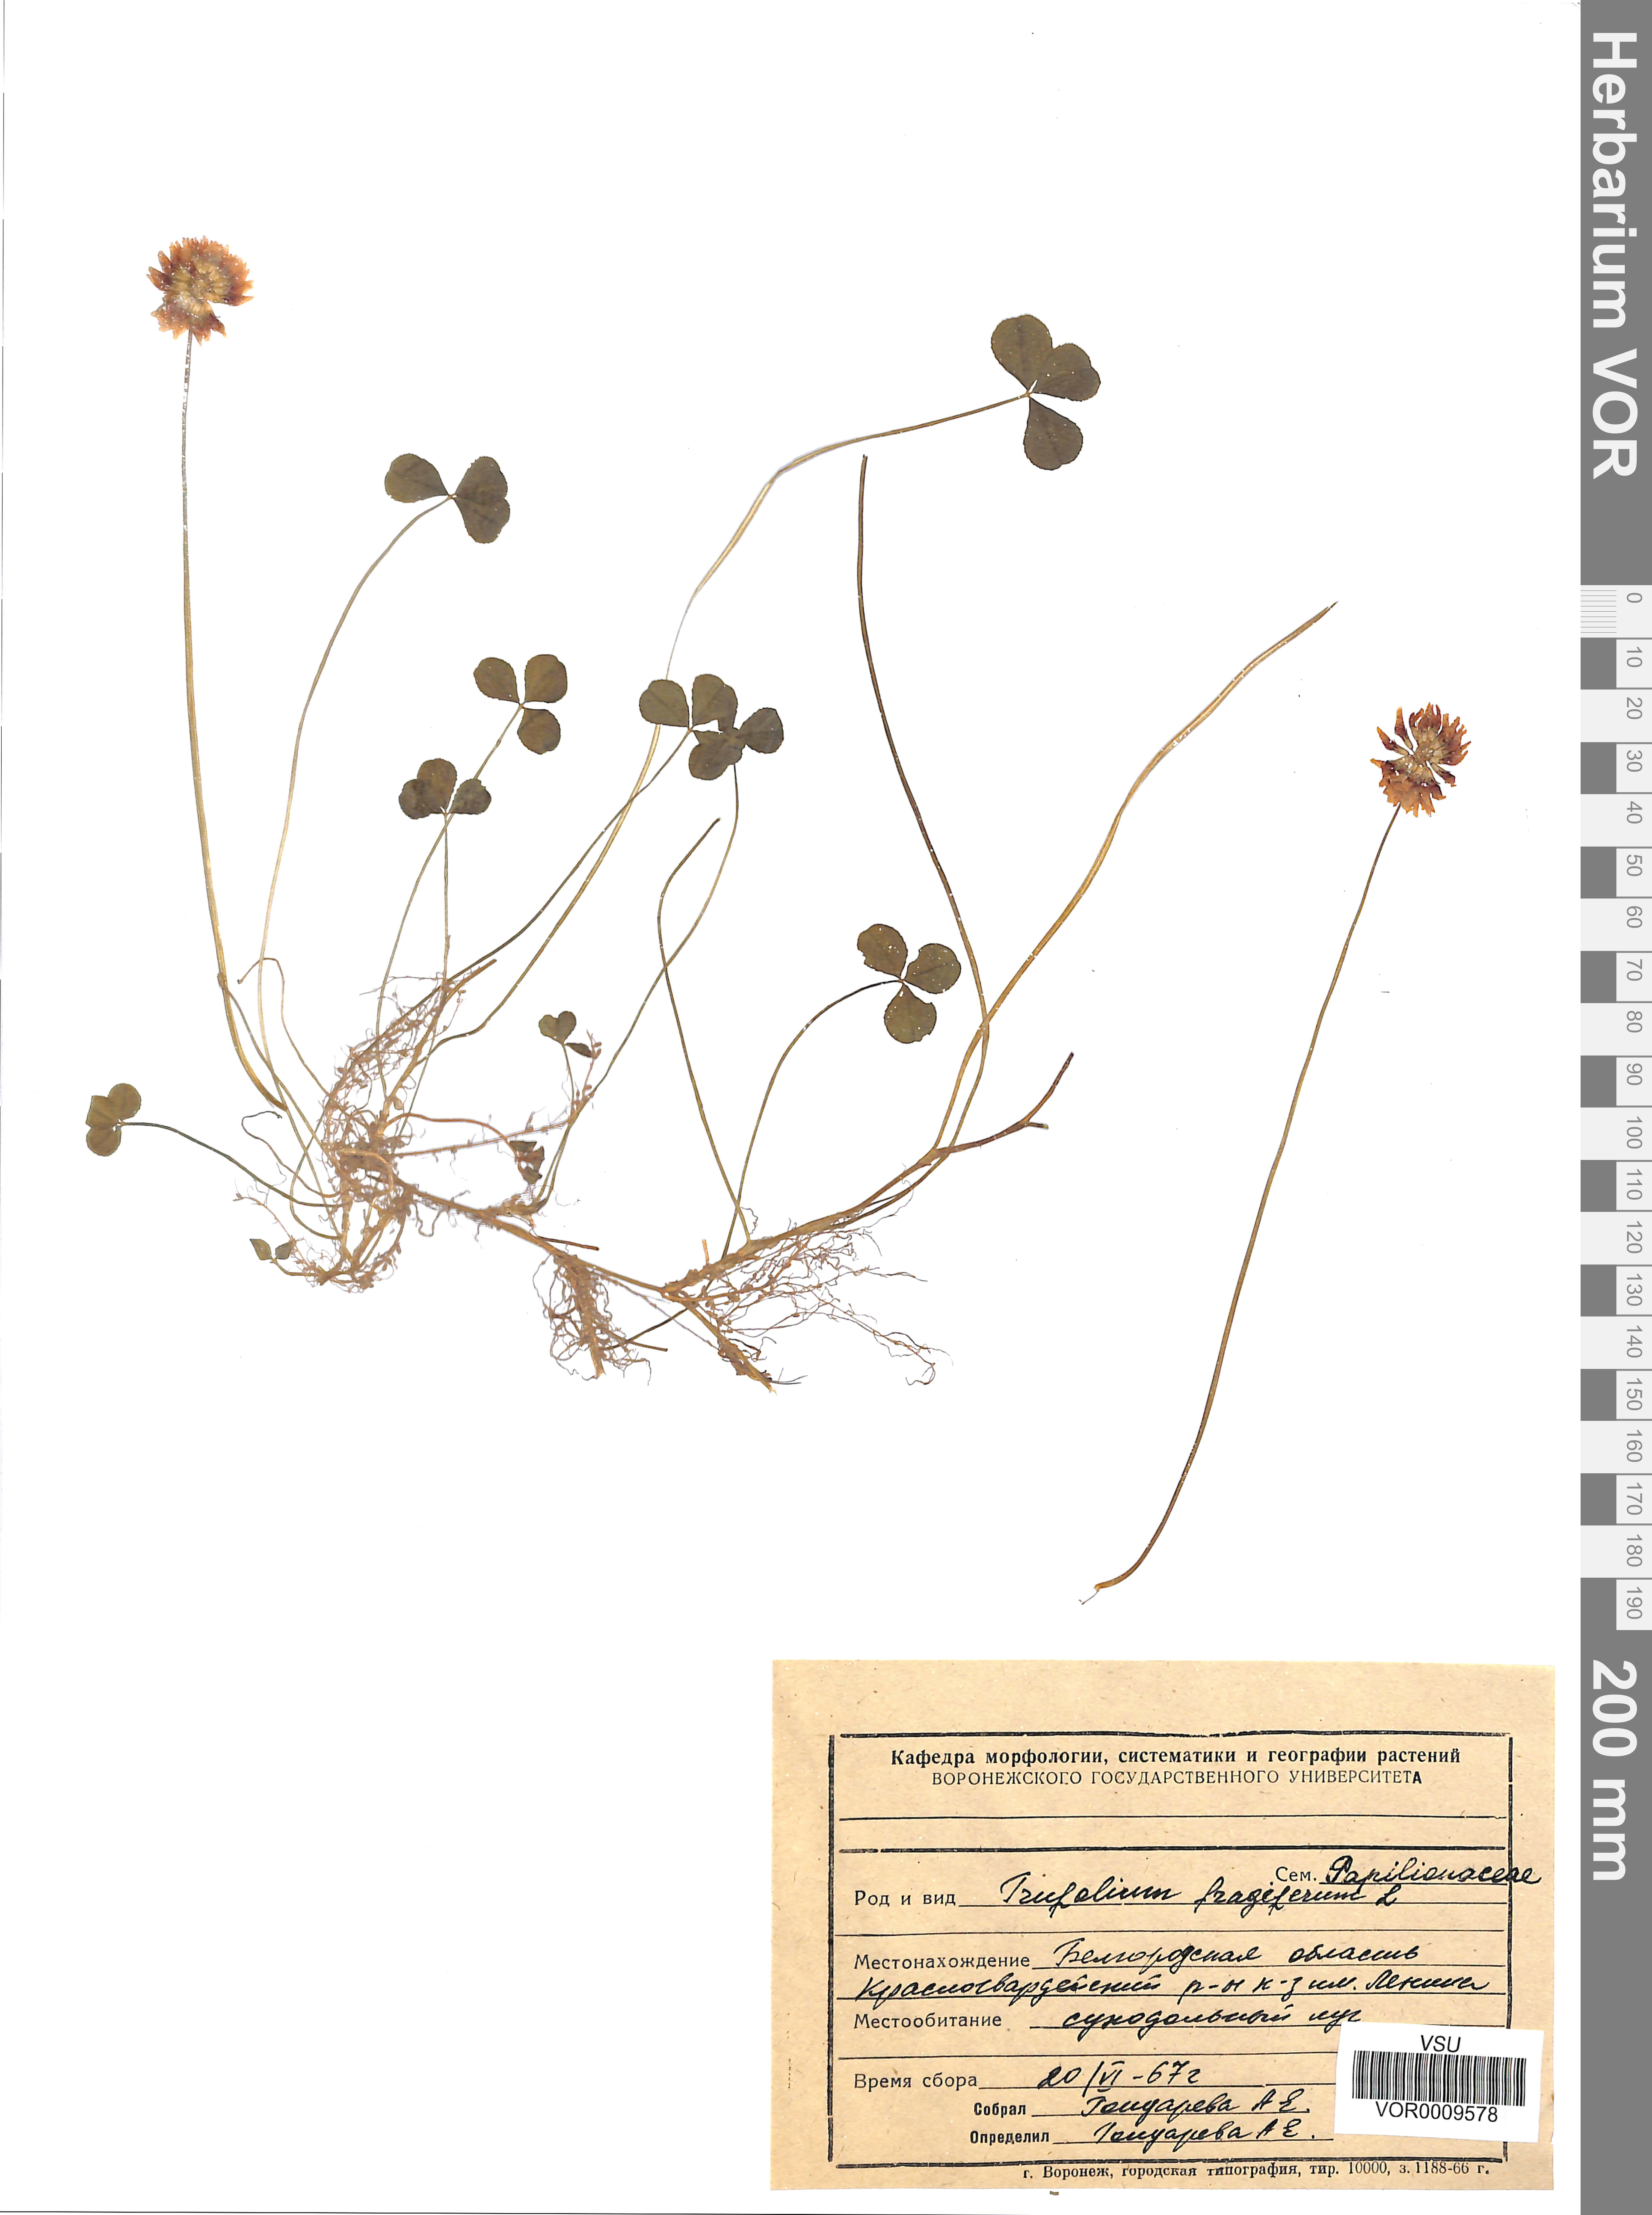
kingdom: Plantae
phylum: Tracheophyta
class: Magnoliopsida
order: Fabales
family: Fabaceae
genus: Trifolium
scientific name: Trifolium repens
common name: White clover
